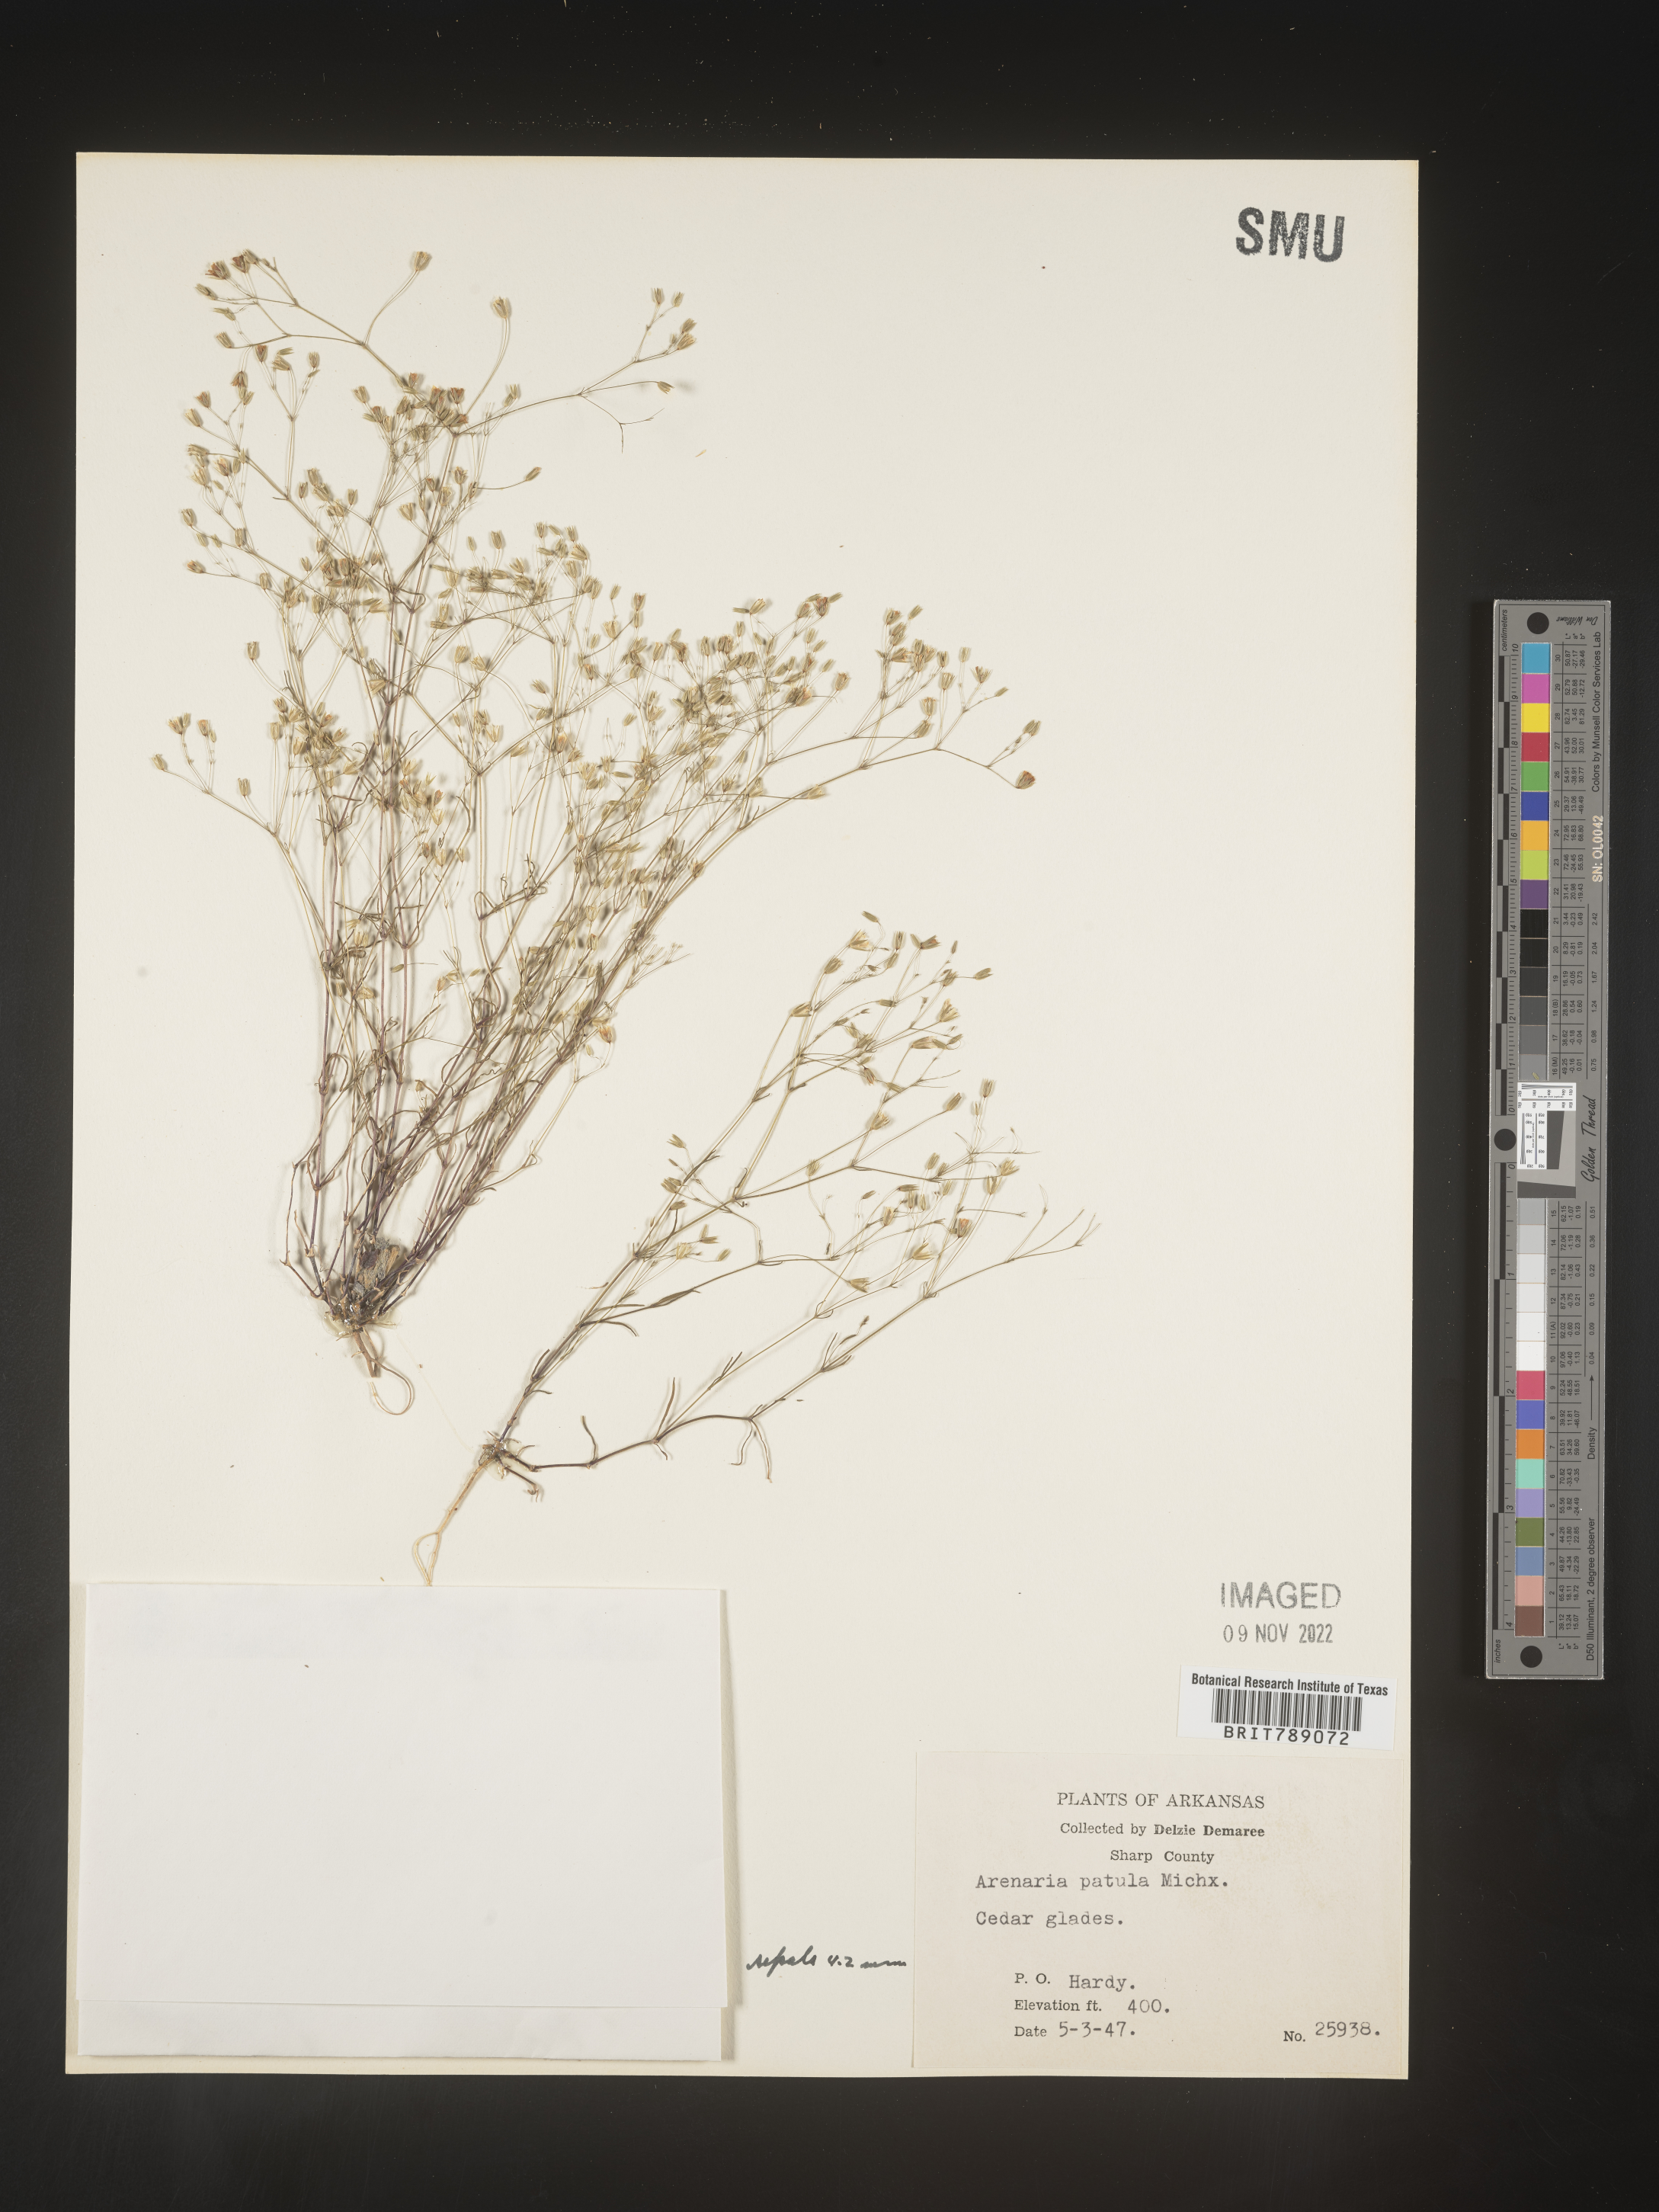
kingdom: Plantae
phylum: Tracheophyta
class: Magnoliopsida
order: Caryophyllales
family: Caryophyllaceae
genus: Mononeuria
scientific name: Mononeuria patula
